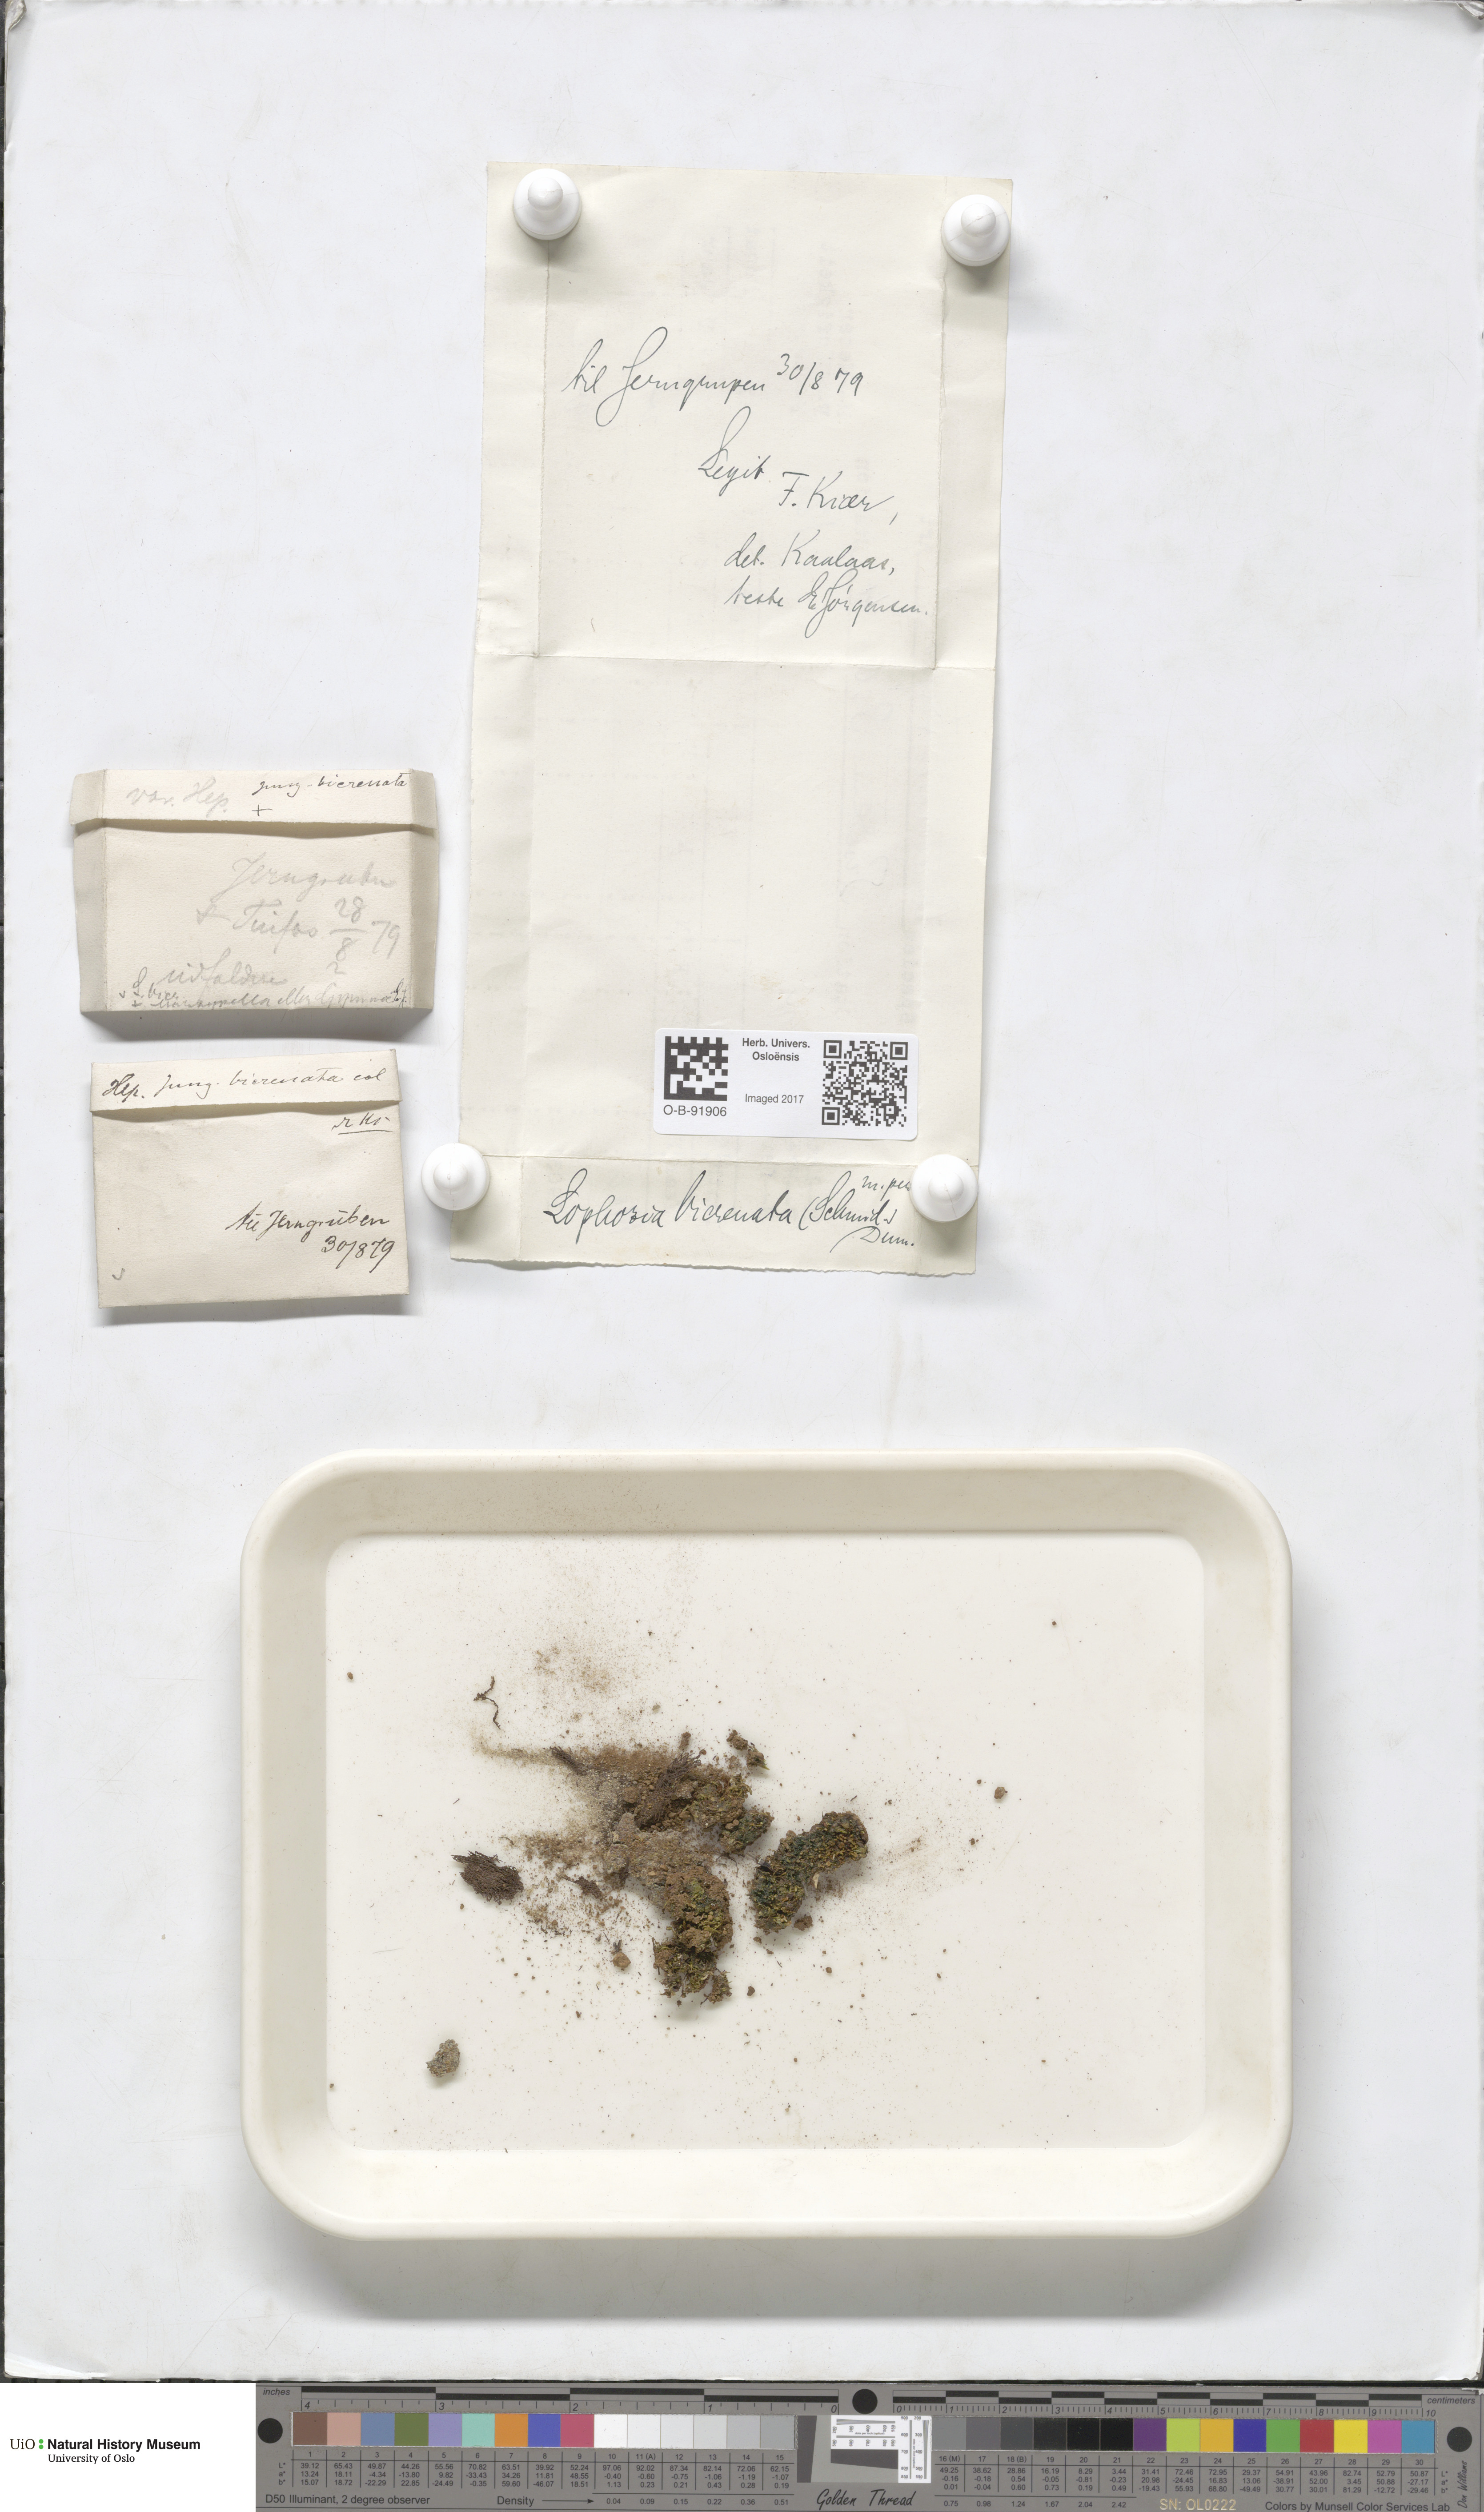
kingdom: Plantae
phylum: Marchantiophyta
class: Jungermanniopsida
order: Jungermanniales
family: Anastrophyllaceae
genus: Isopaches
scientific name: Isopaches bicrenatus
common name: Lesser notchwort
